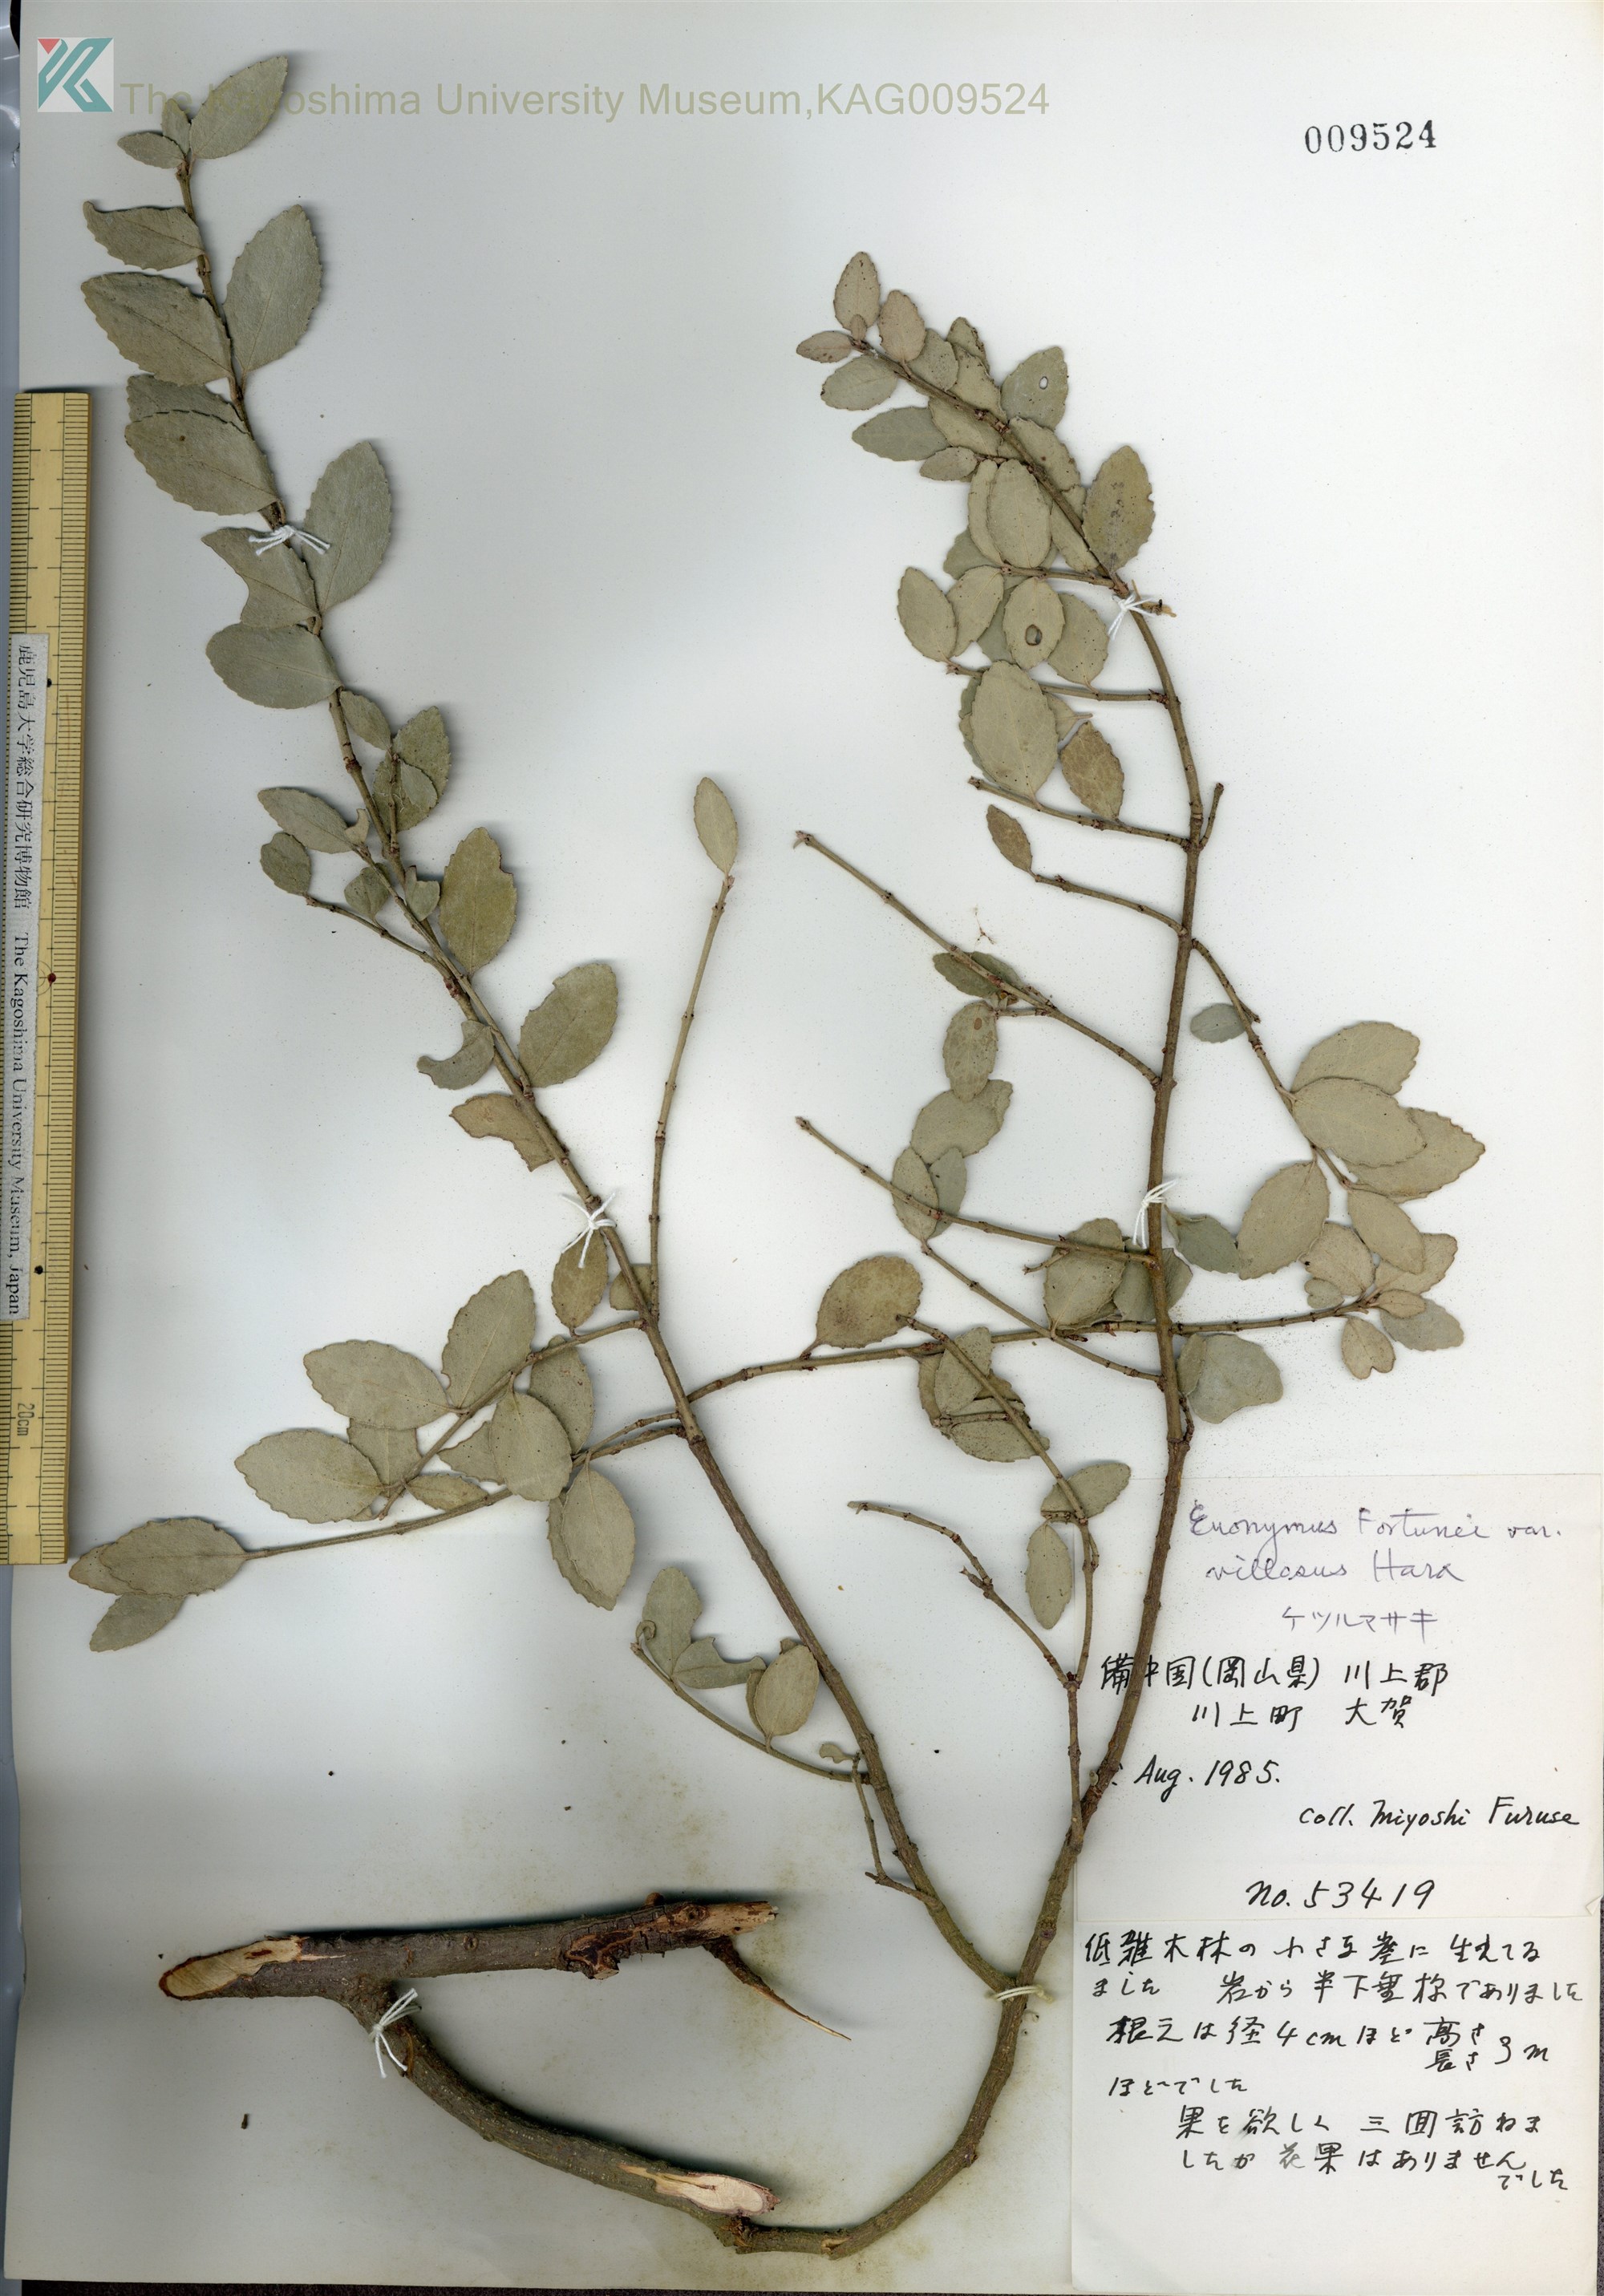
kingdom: Plantae
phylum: Tracheophyta
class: Magnoliopsida
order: Celastrales
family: Celastraceae
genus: Euonymus
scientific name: Euonymus fortunei
